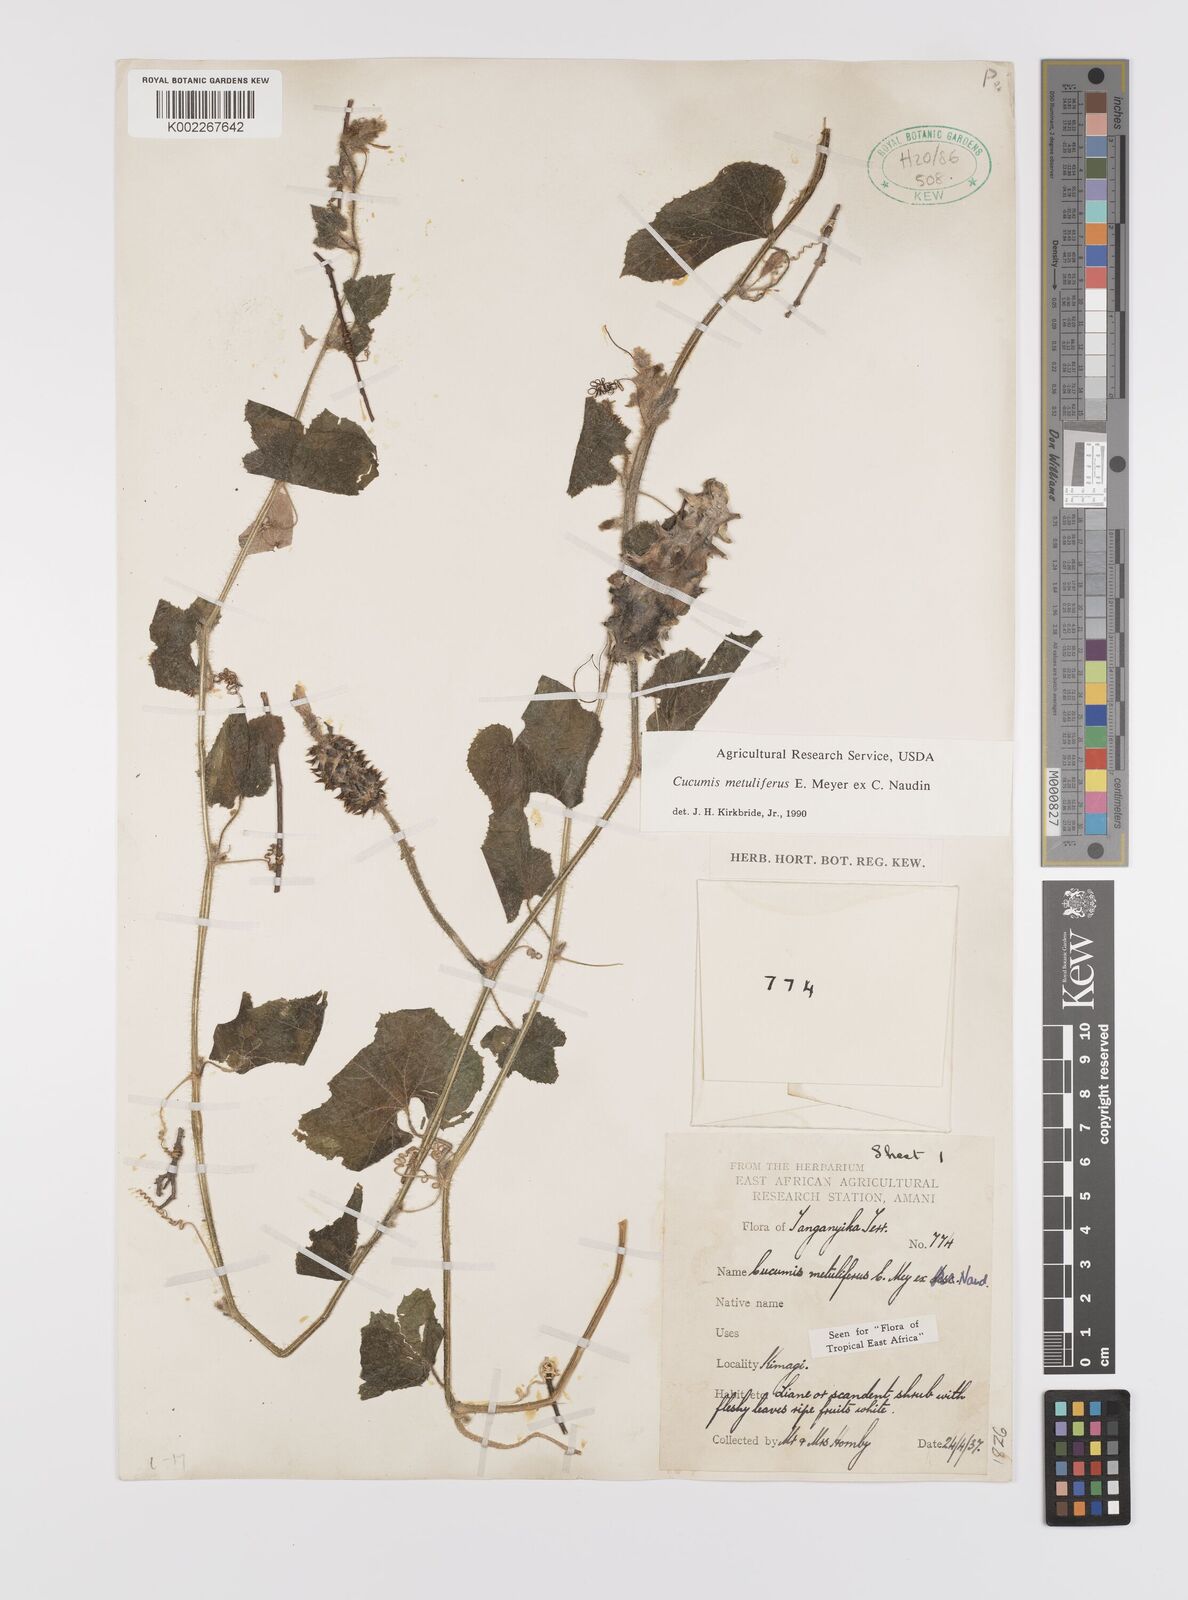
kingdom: Plantae
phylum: Tracheophyta
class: Magnoliopsida
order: Cucurbitales
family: Cucurbitaceae
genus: Cucumis
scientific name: Cucumis metuliferus
